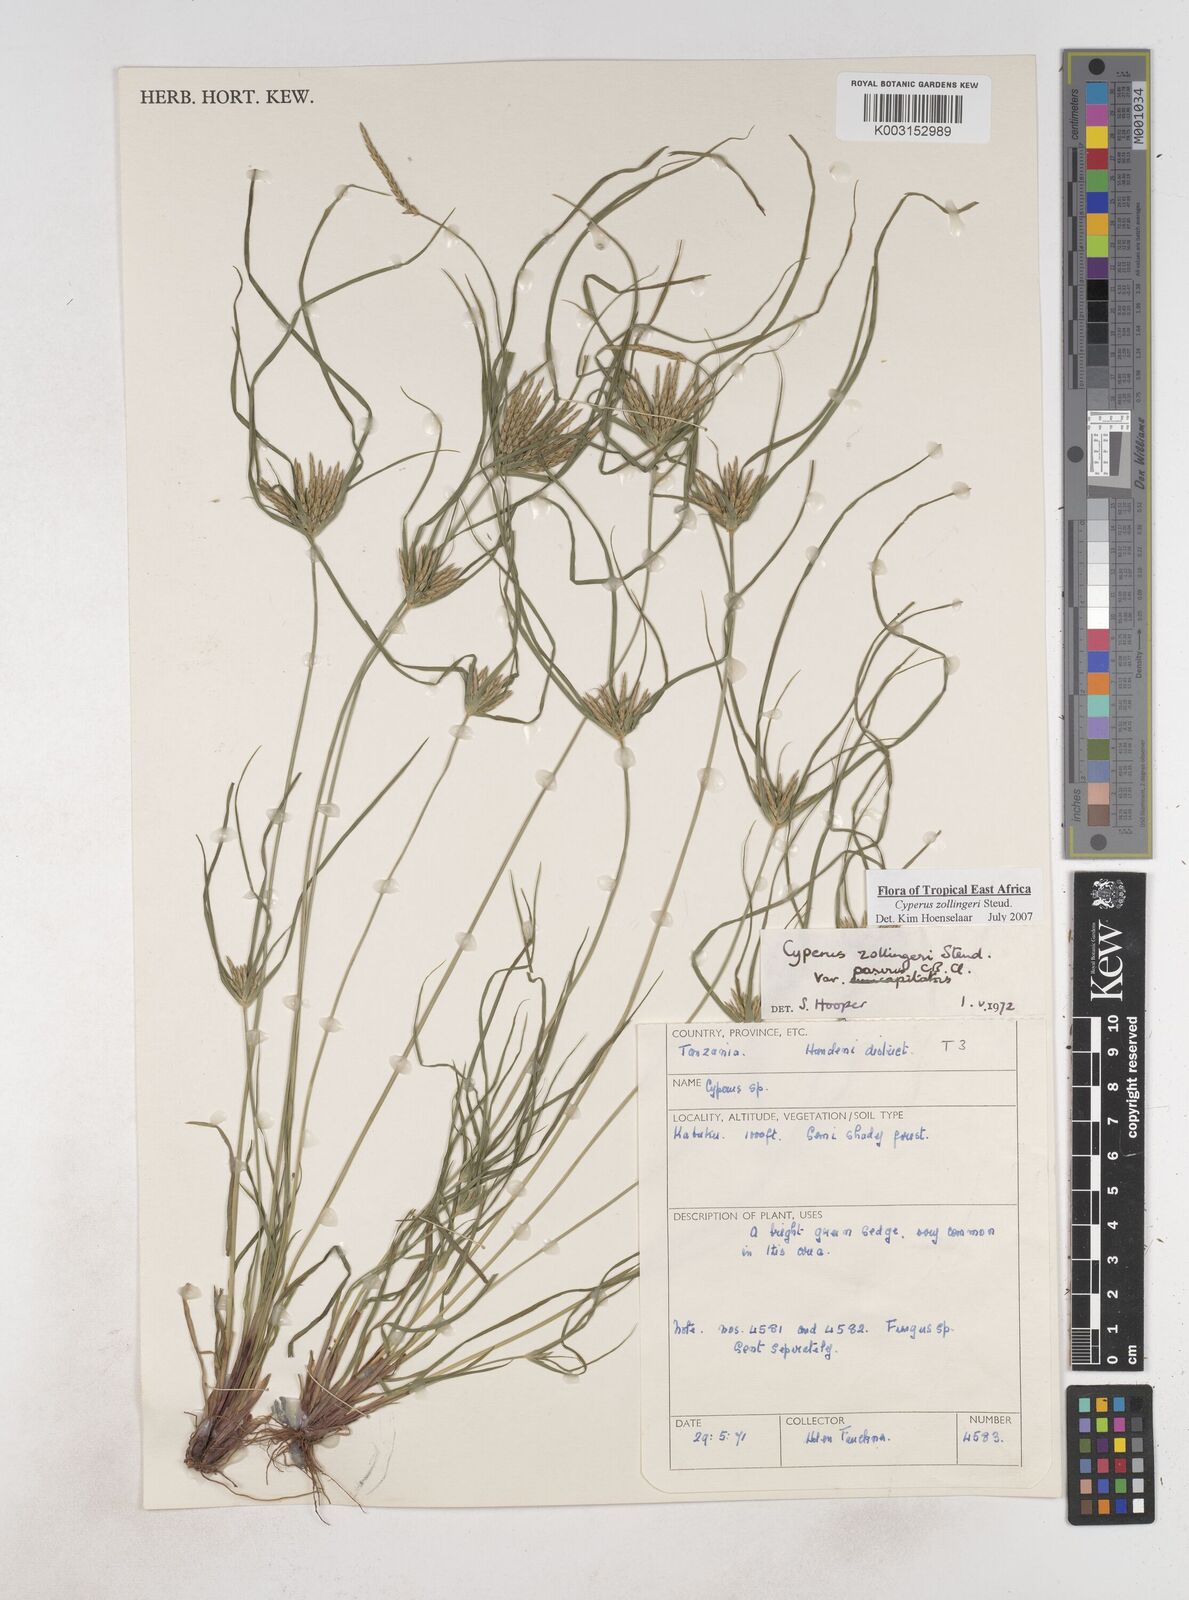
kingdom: Plantae
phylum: Tracheophyta
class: Liliopsida
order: Poales
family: Cyperaceae
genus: Cyperus
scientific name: Cyperus zollingeri
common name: Roadside flatsedge
